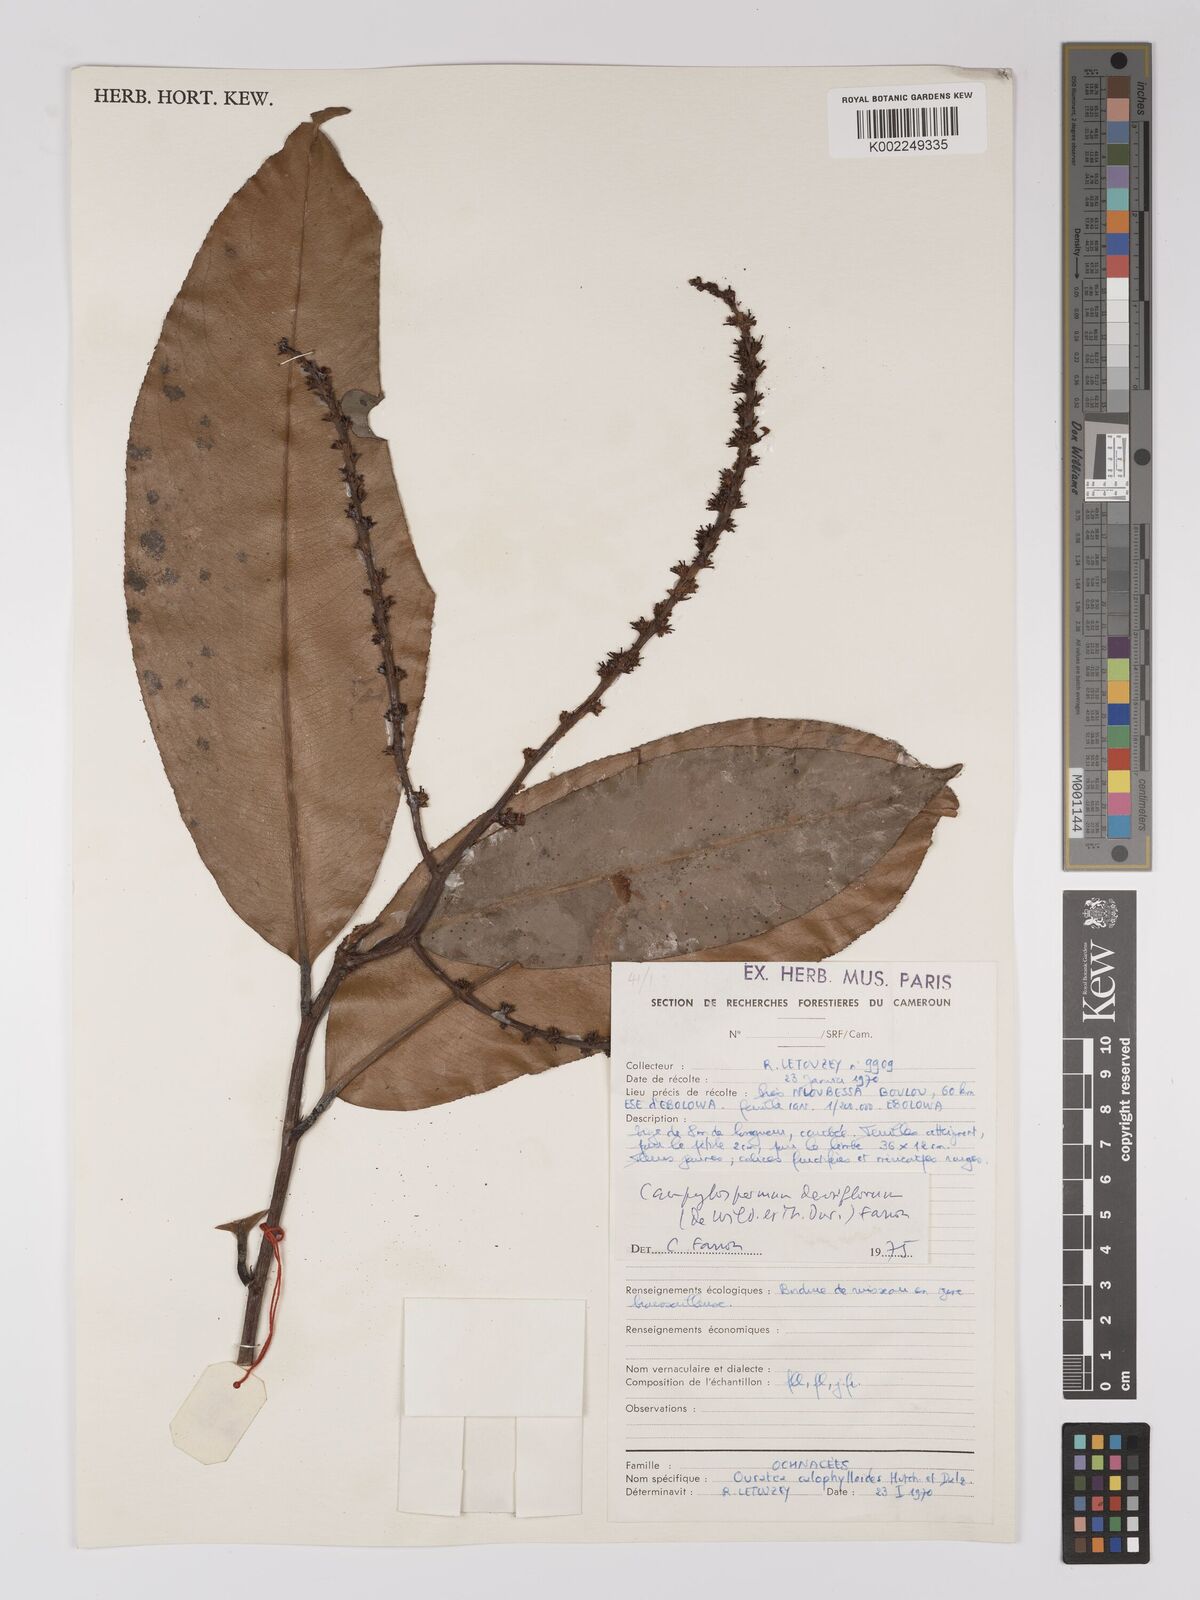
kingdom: Plantae
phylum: Tracheophyta
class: Magnoliopsida
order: Malpighiales
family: Ochnaceae
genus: Gomphia
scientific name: Gomphia densiflora
